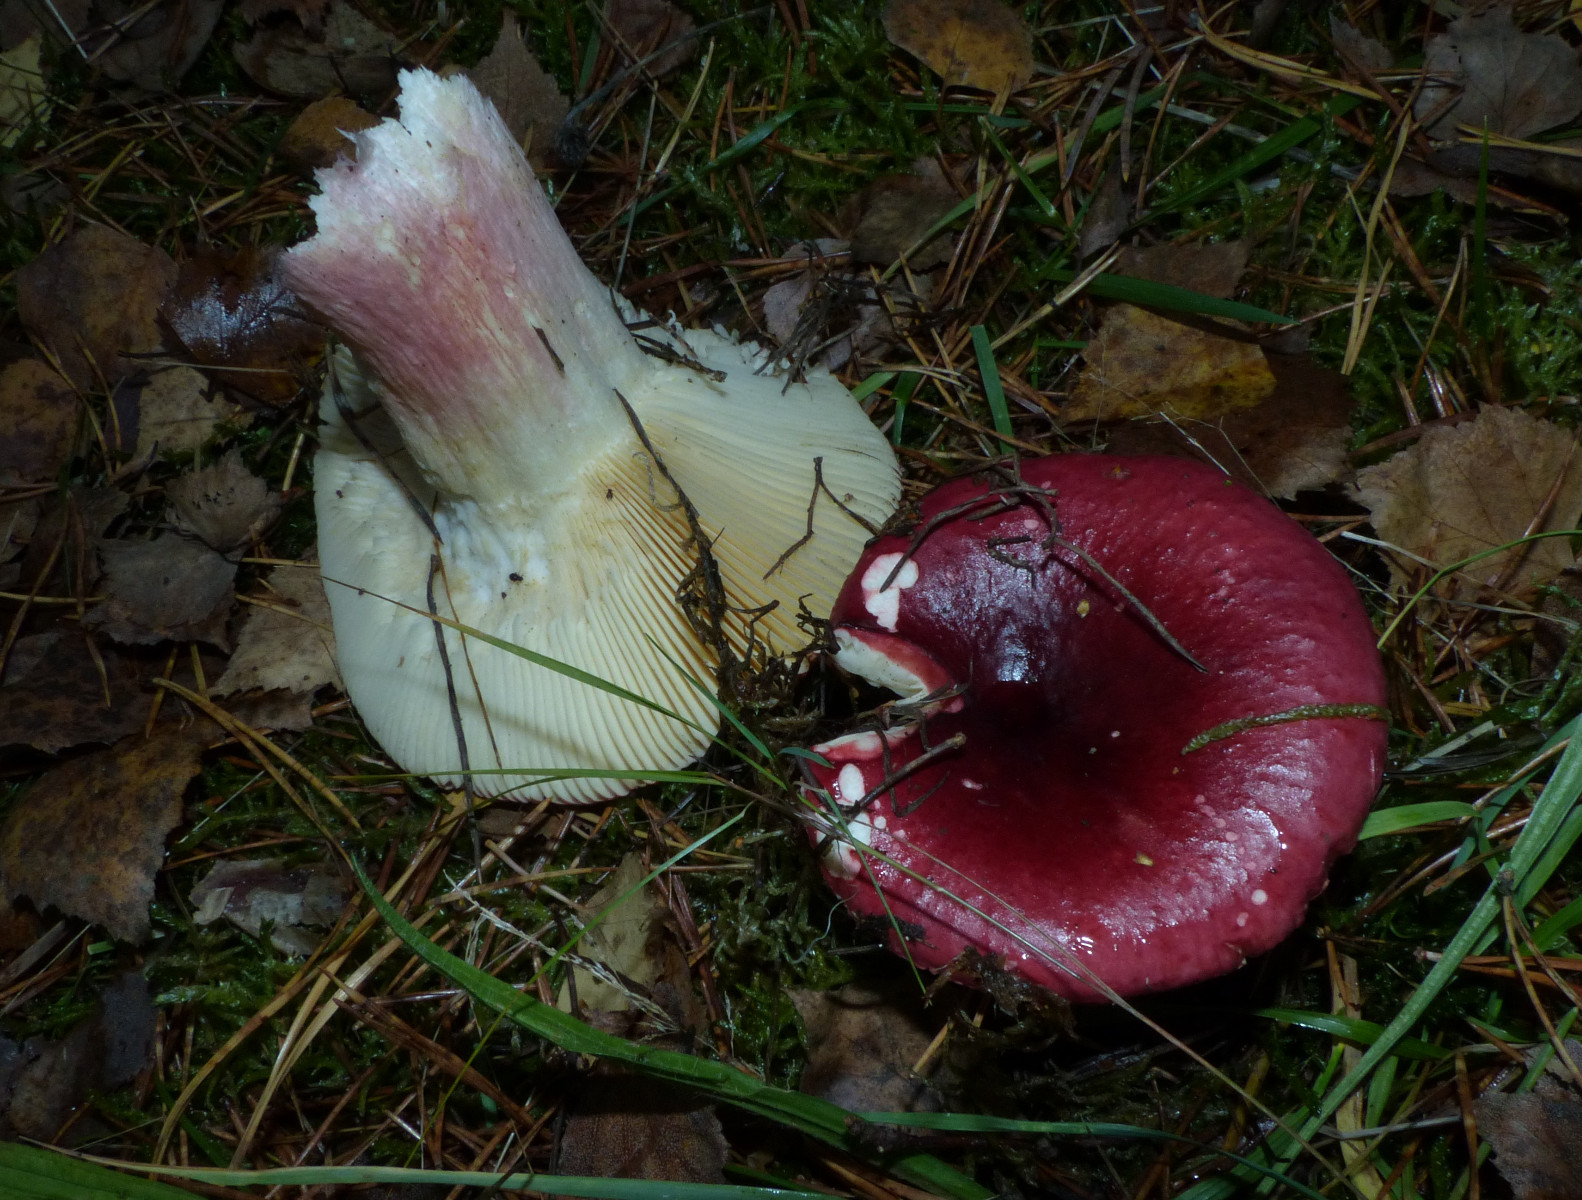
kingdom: Fungi
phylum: Basidiomycota
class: Agaricomycetes
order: Russulales
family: Russulaceae
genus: Russula
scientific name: Russula xerampelina
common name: hummer-skørhat
